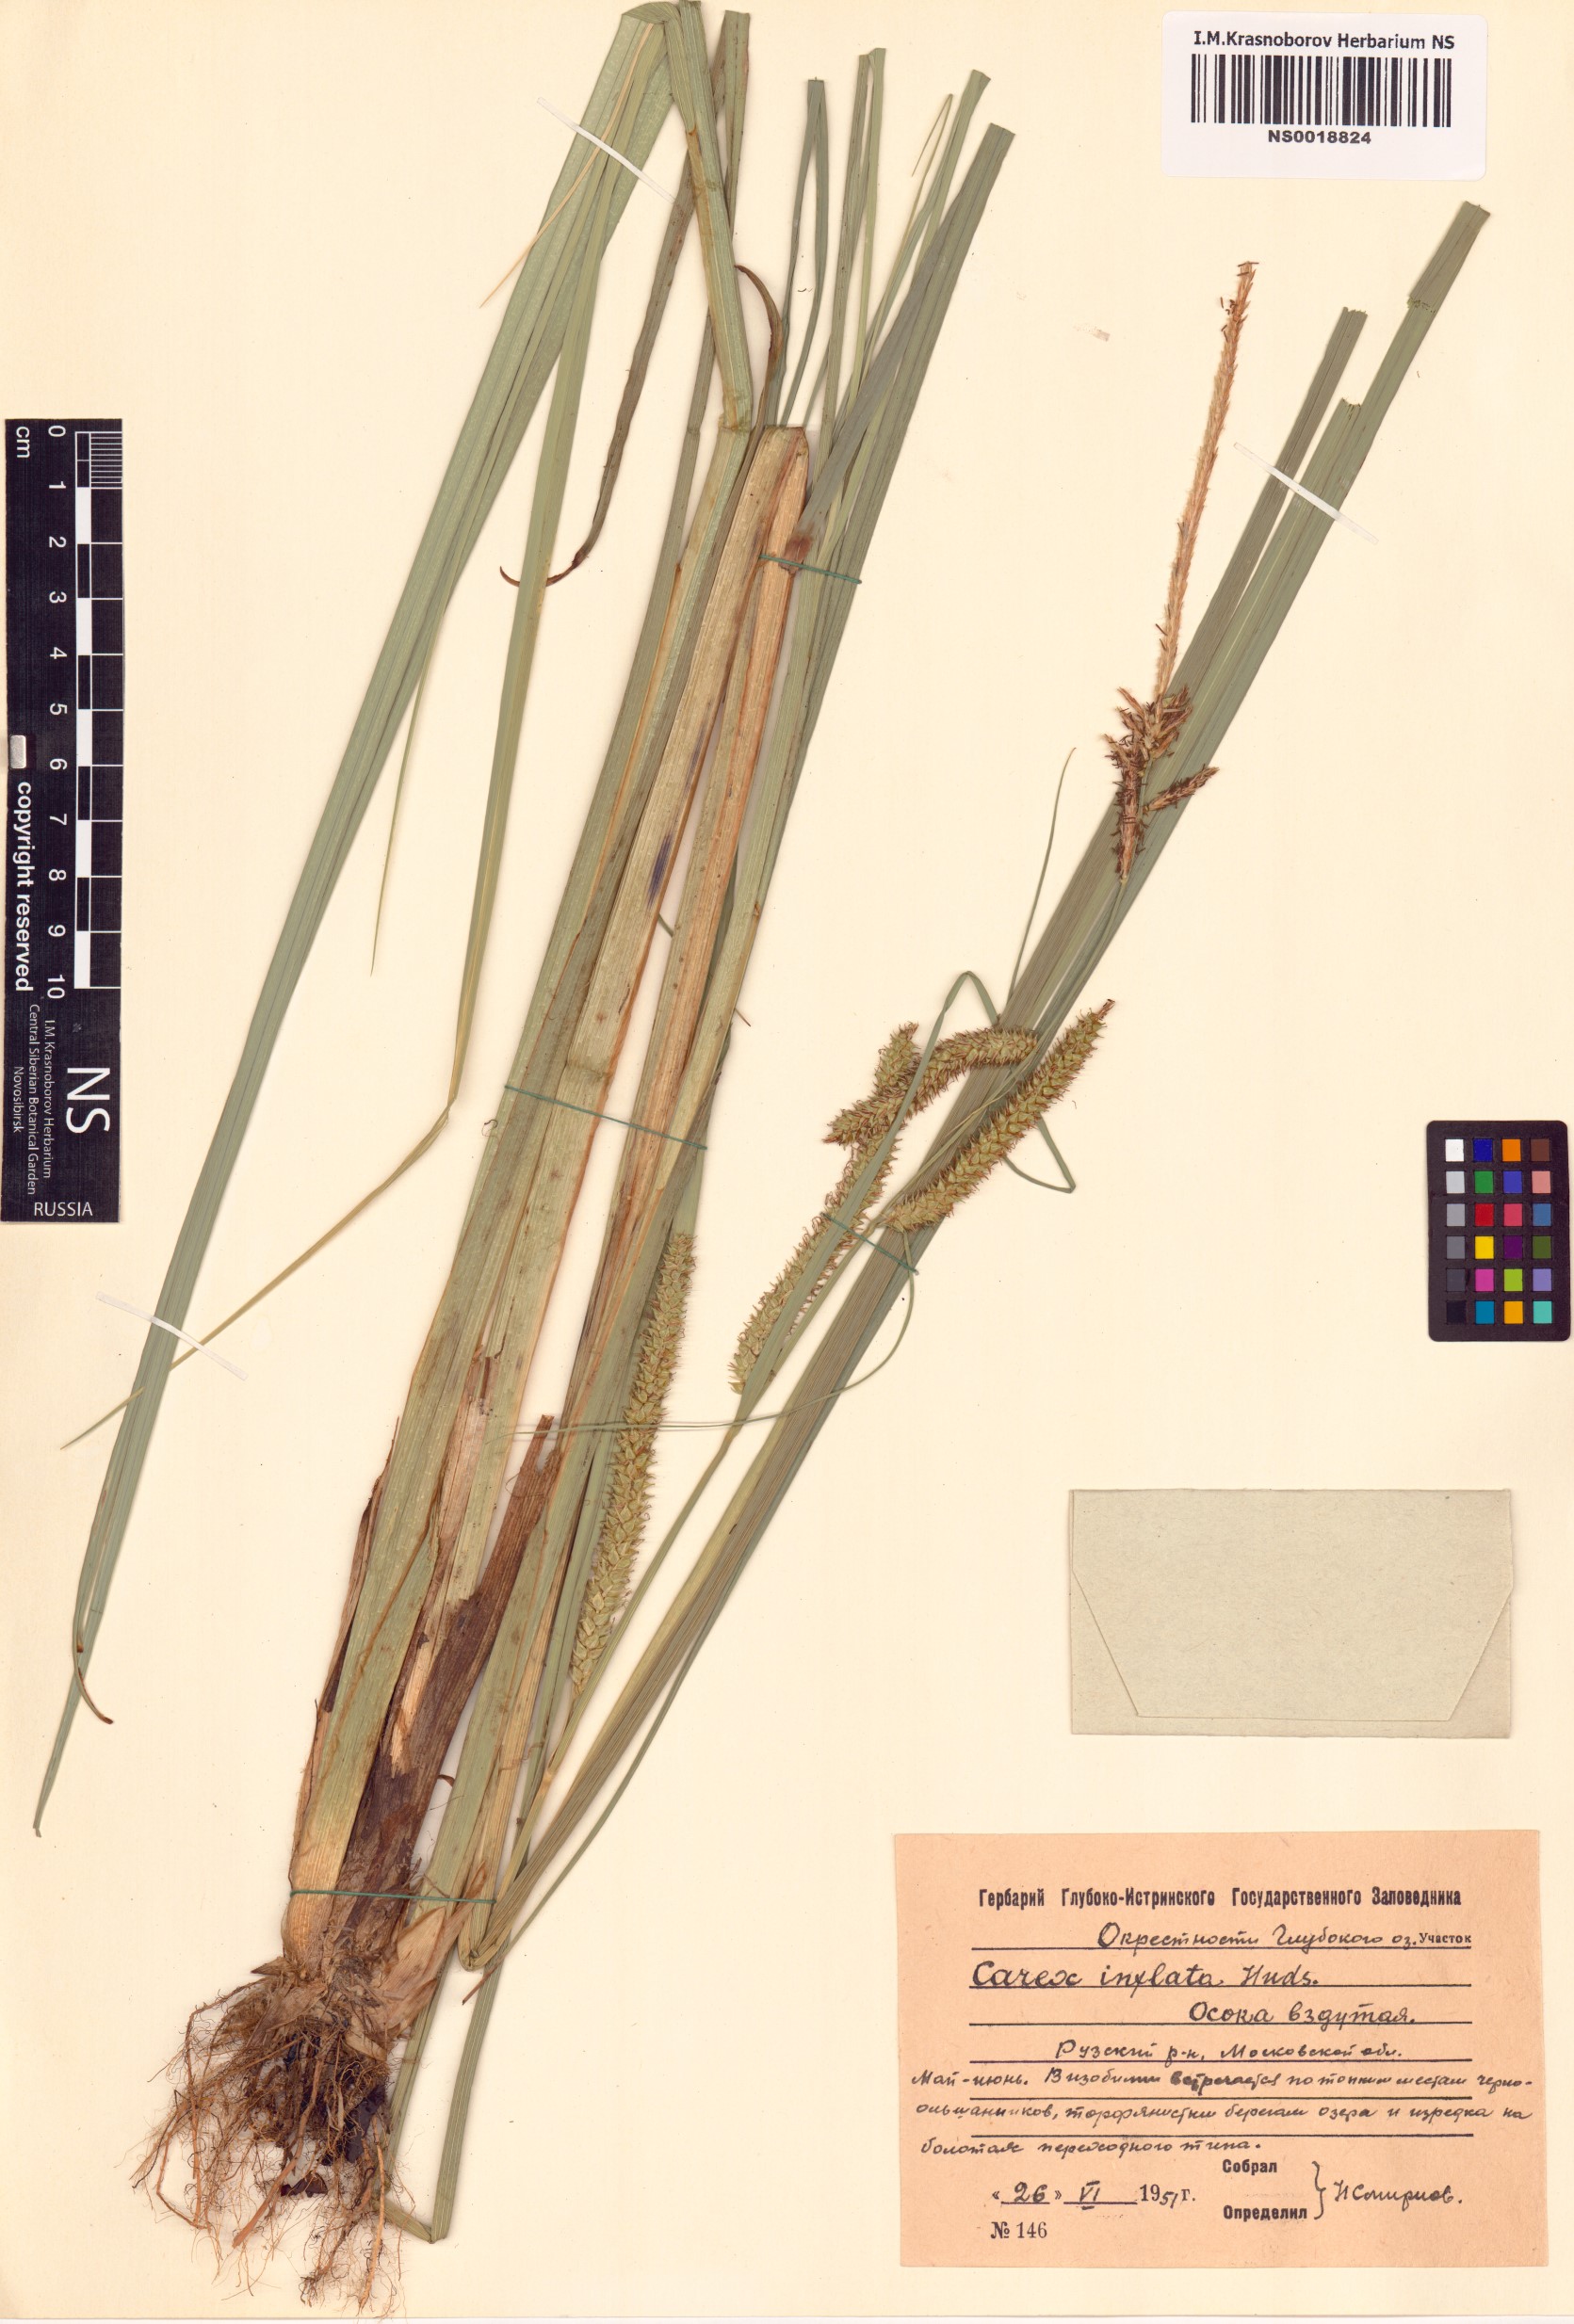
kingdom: Plantae
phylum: Tracheophyta
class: Liliopsida
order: Poales
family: Cyperaceae
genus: Carex
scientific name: Carex rostrata
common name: Bottle sedge
